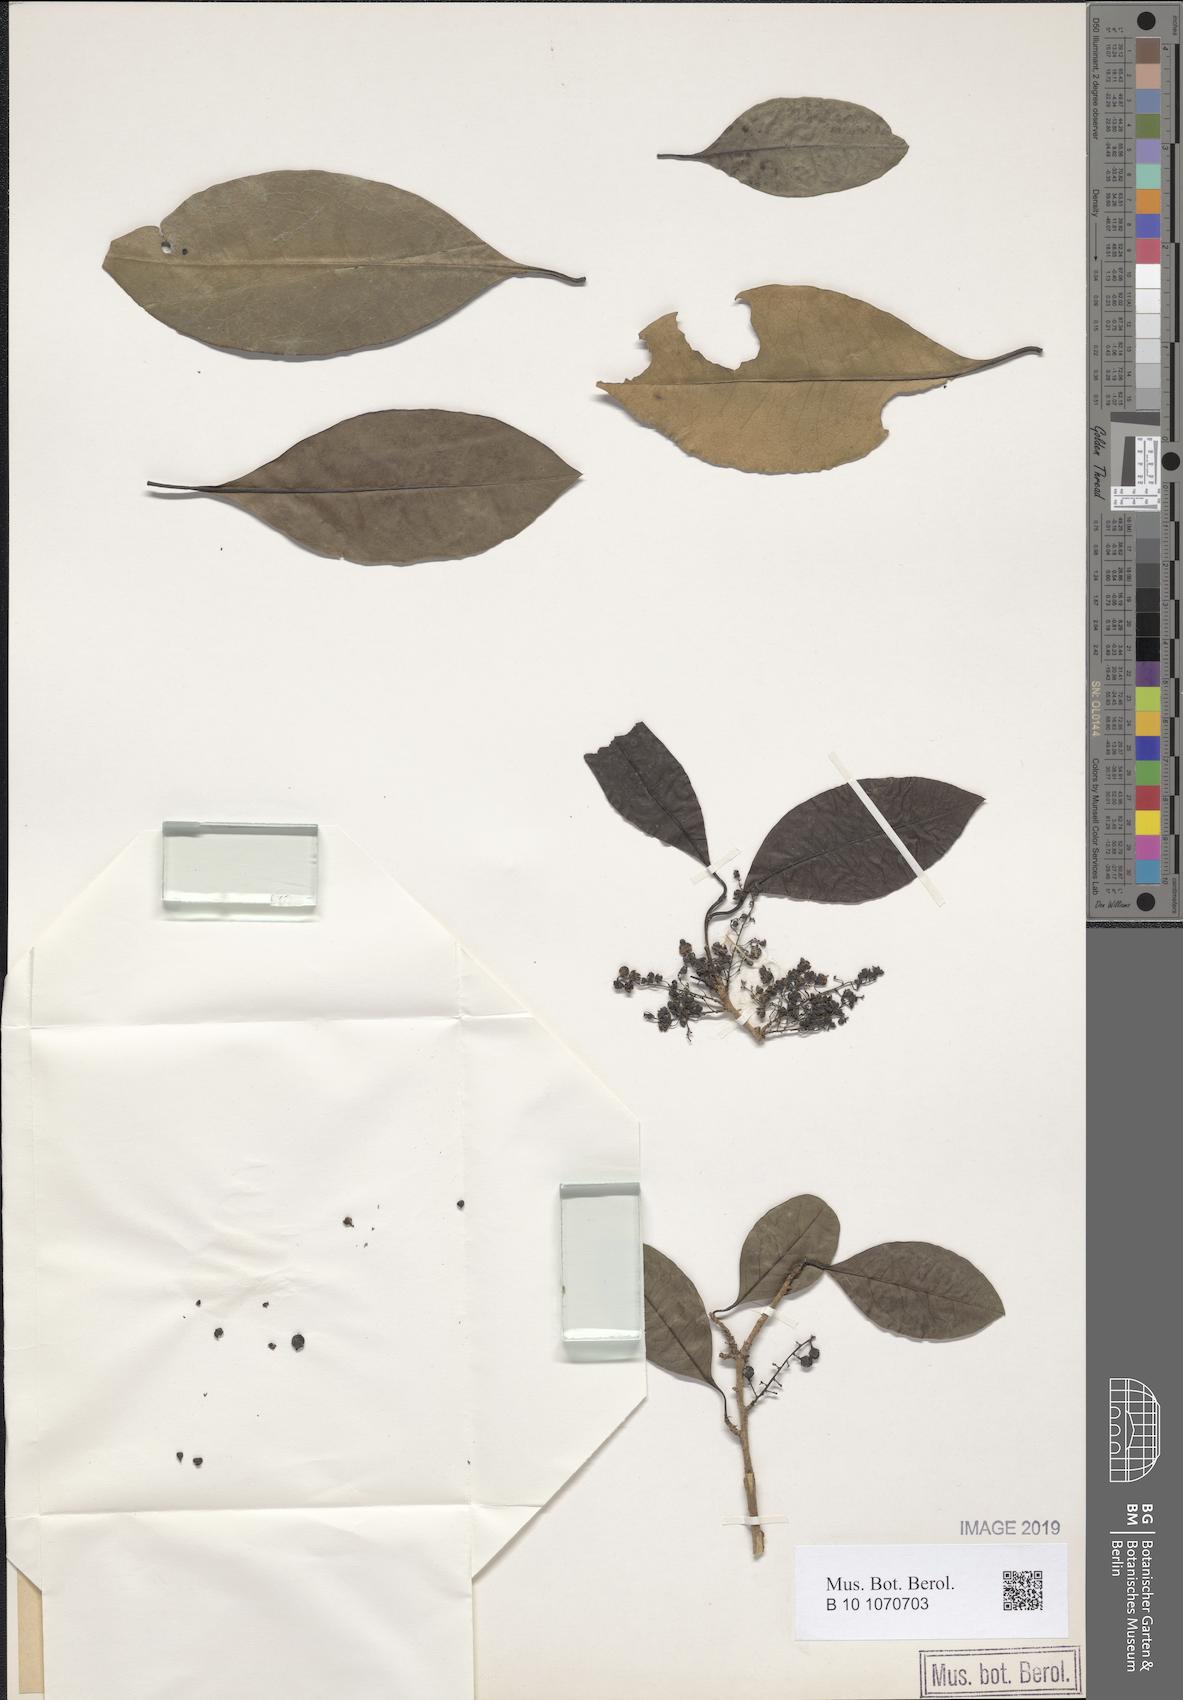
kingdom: Plantae
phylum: Tracheophyta
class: Magnoliopsida
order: Caryophyllales
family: Achatocarpaceae
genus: Achatocarpus
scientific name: Achatocarpus nigricans
